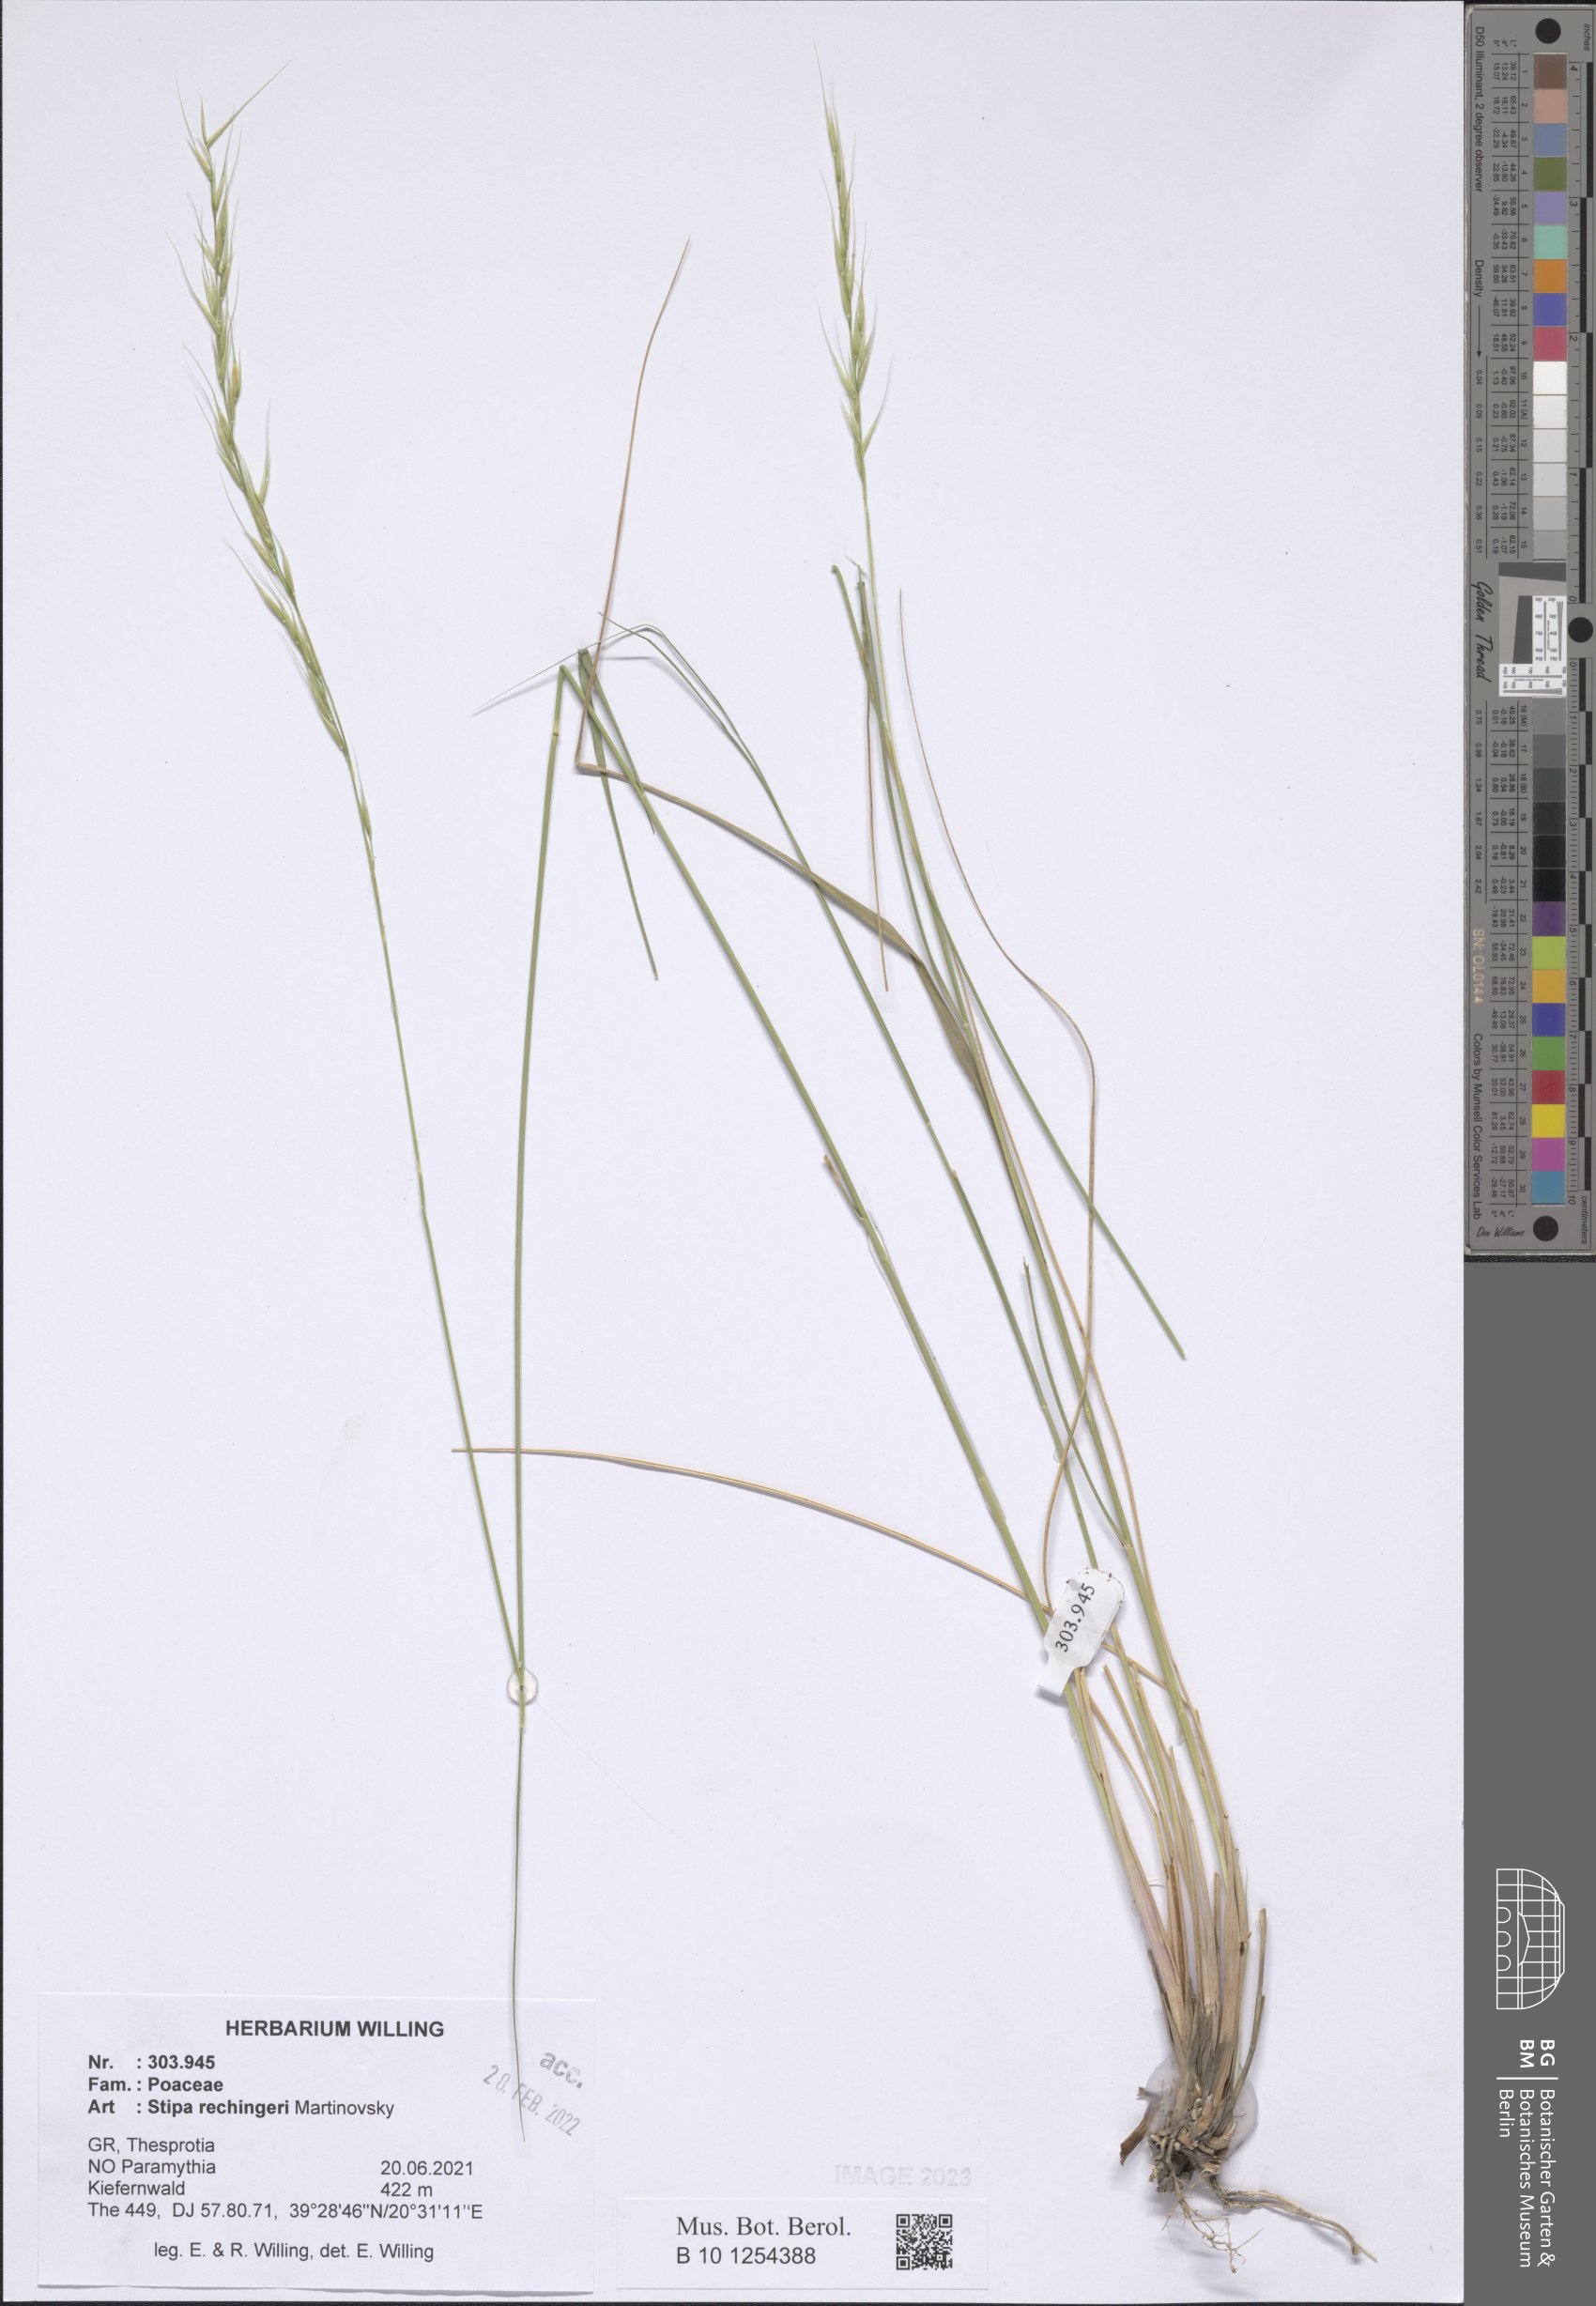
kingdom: Plantae
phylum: Tracheophyta
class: Liliopsida
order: Poales
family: Poaceae
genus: Stipa
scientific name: Stipa rechingeri
